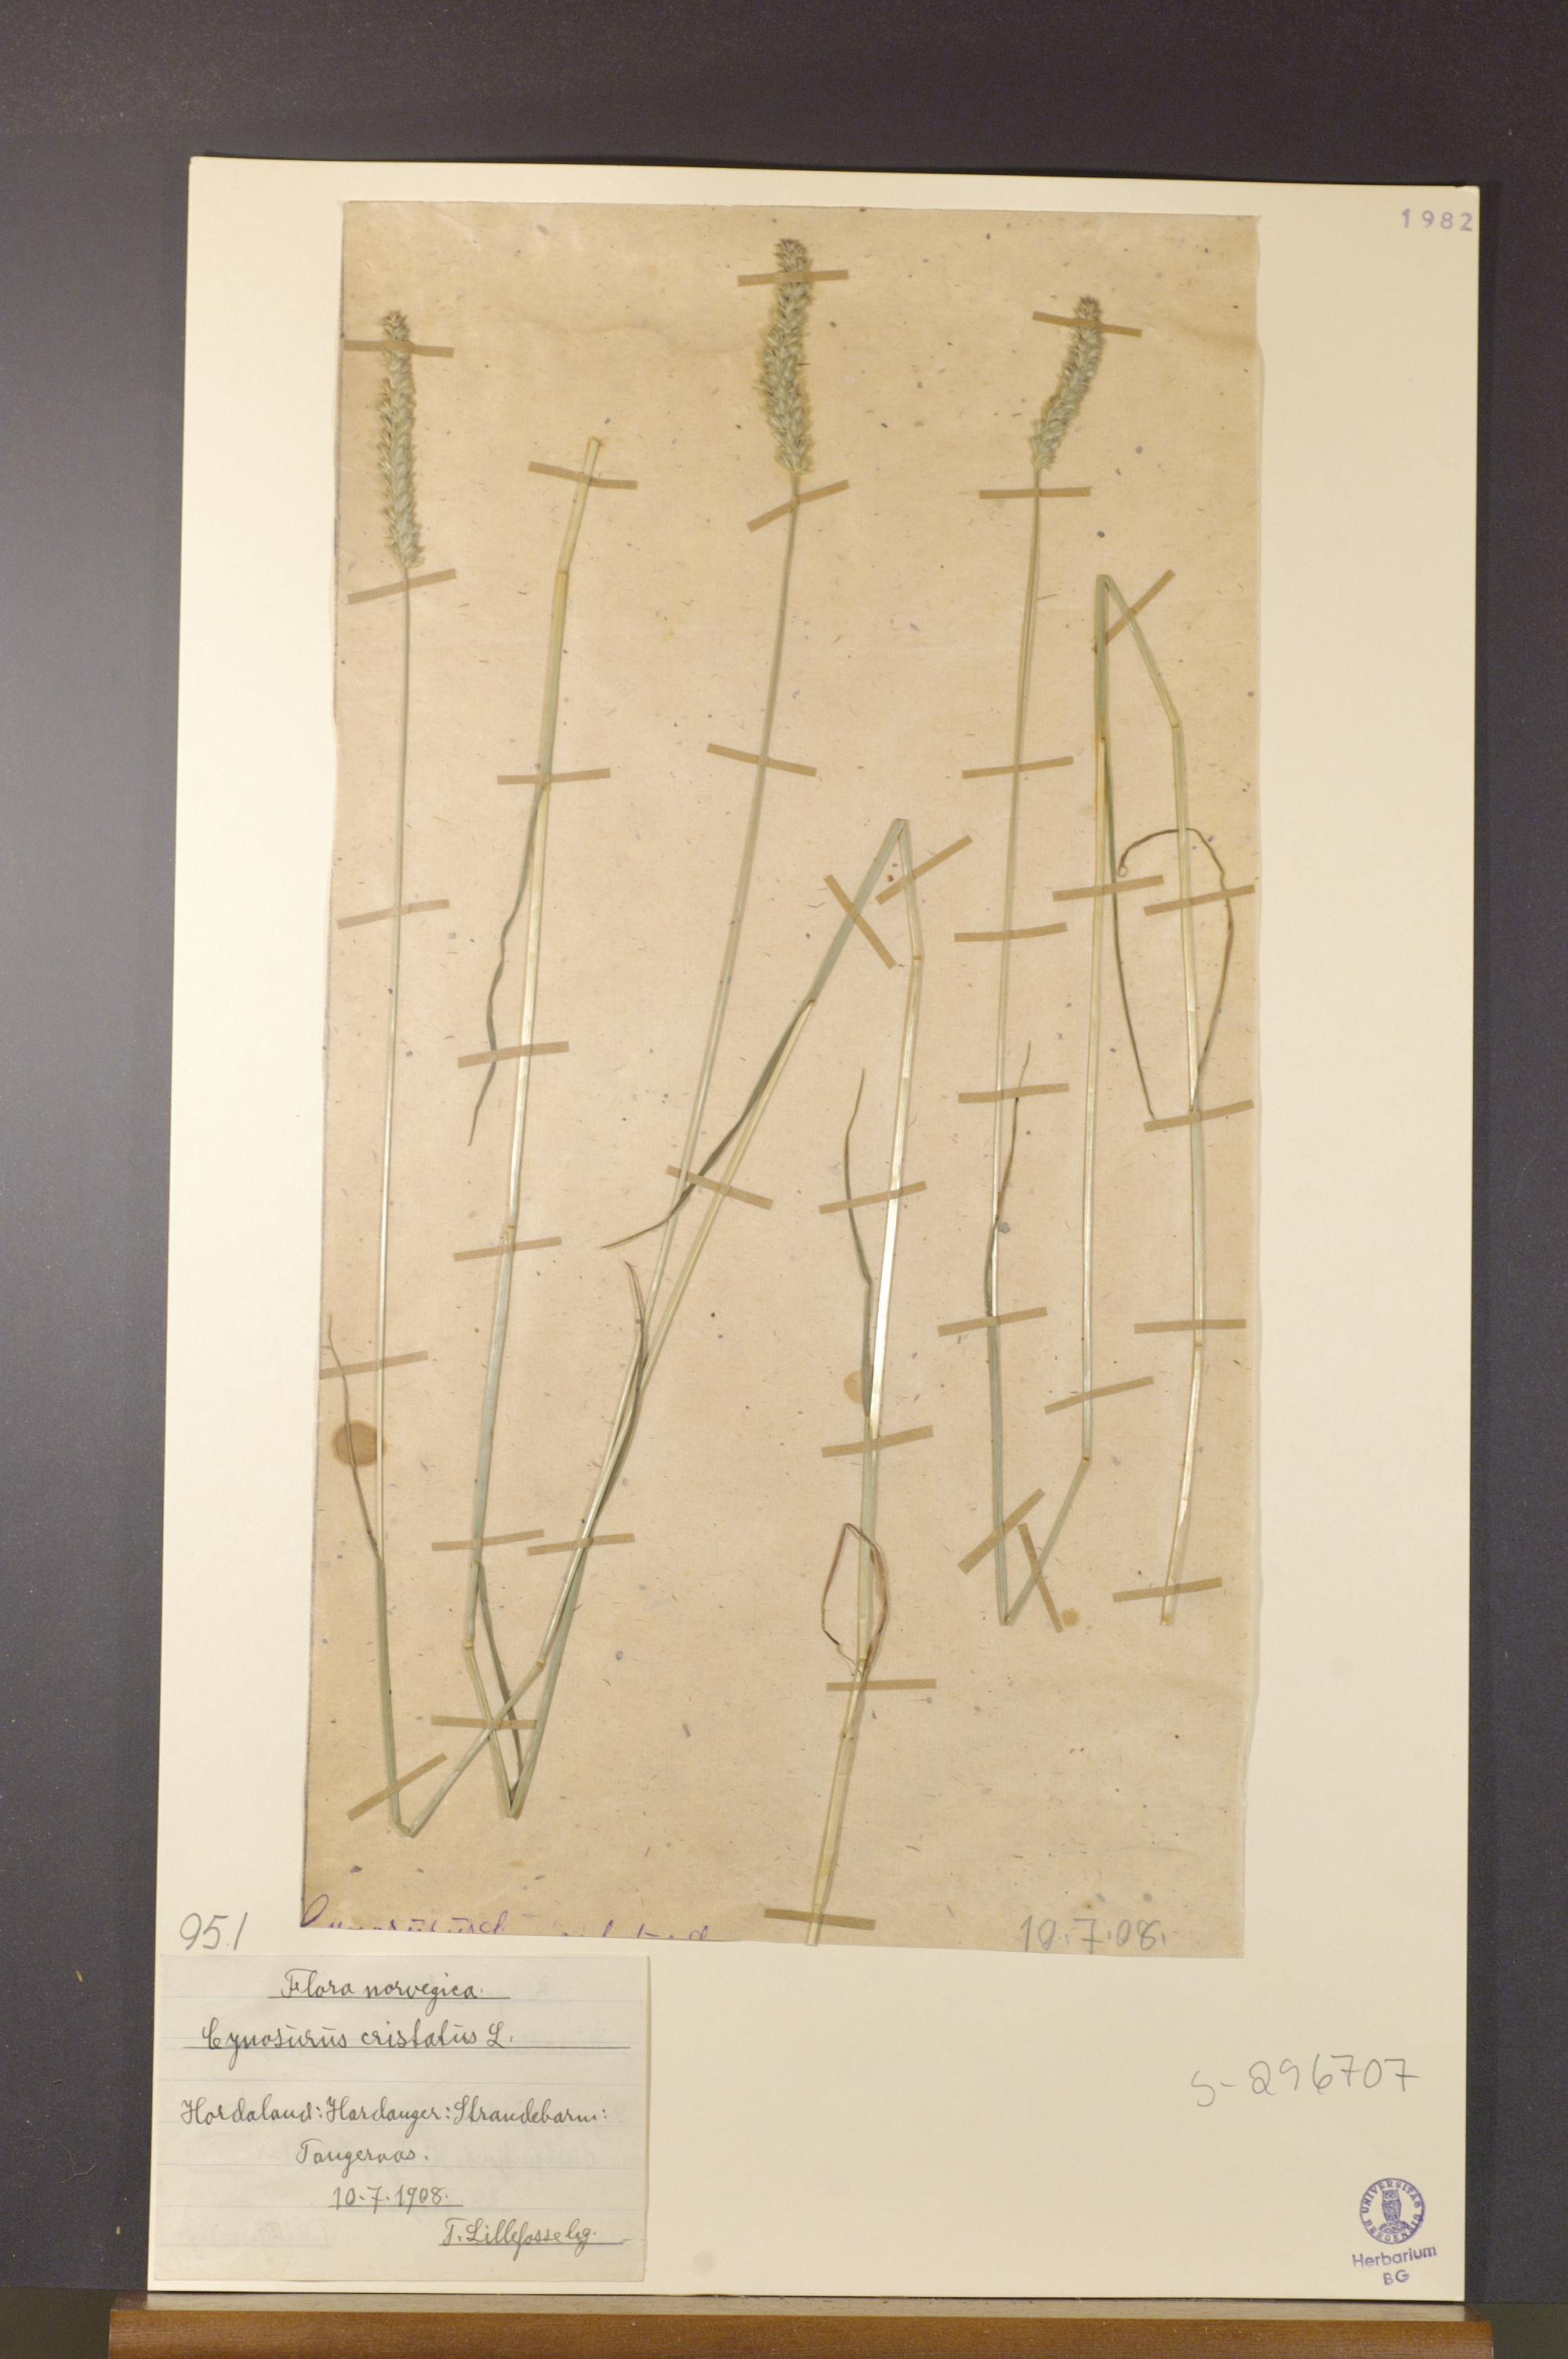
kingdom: Plantae
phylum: Tracheophyta
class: Liliopsida
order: Poales
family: Poaceae
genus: Cynosurus
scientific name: Cynosurus cristatus
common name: Crested dog's-tail
